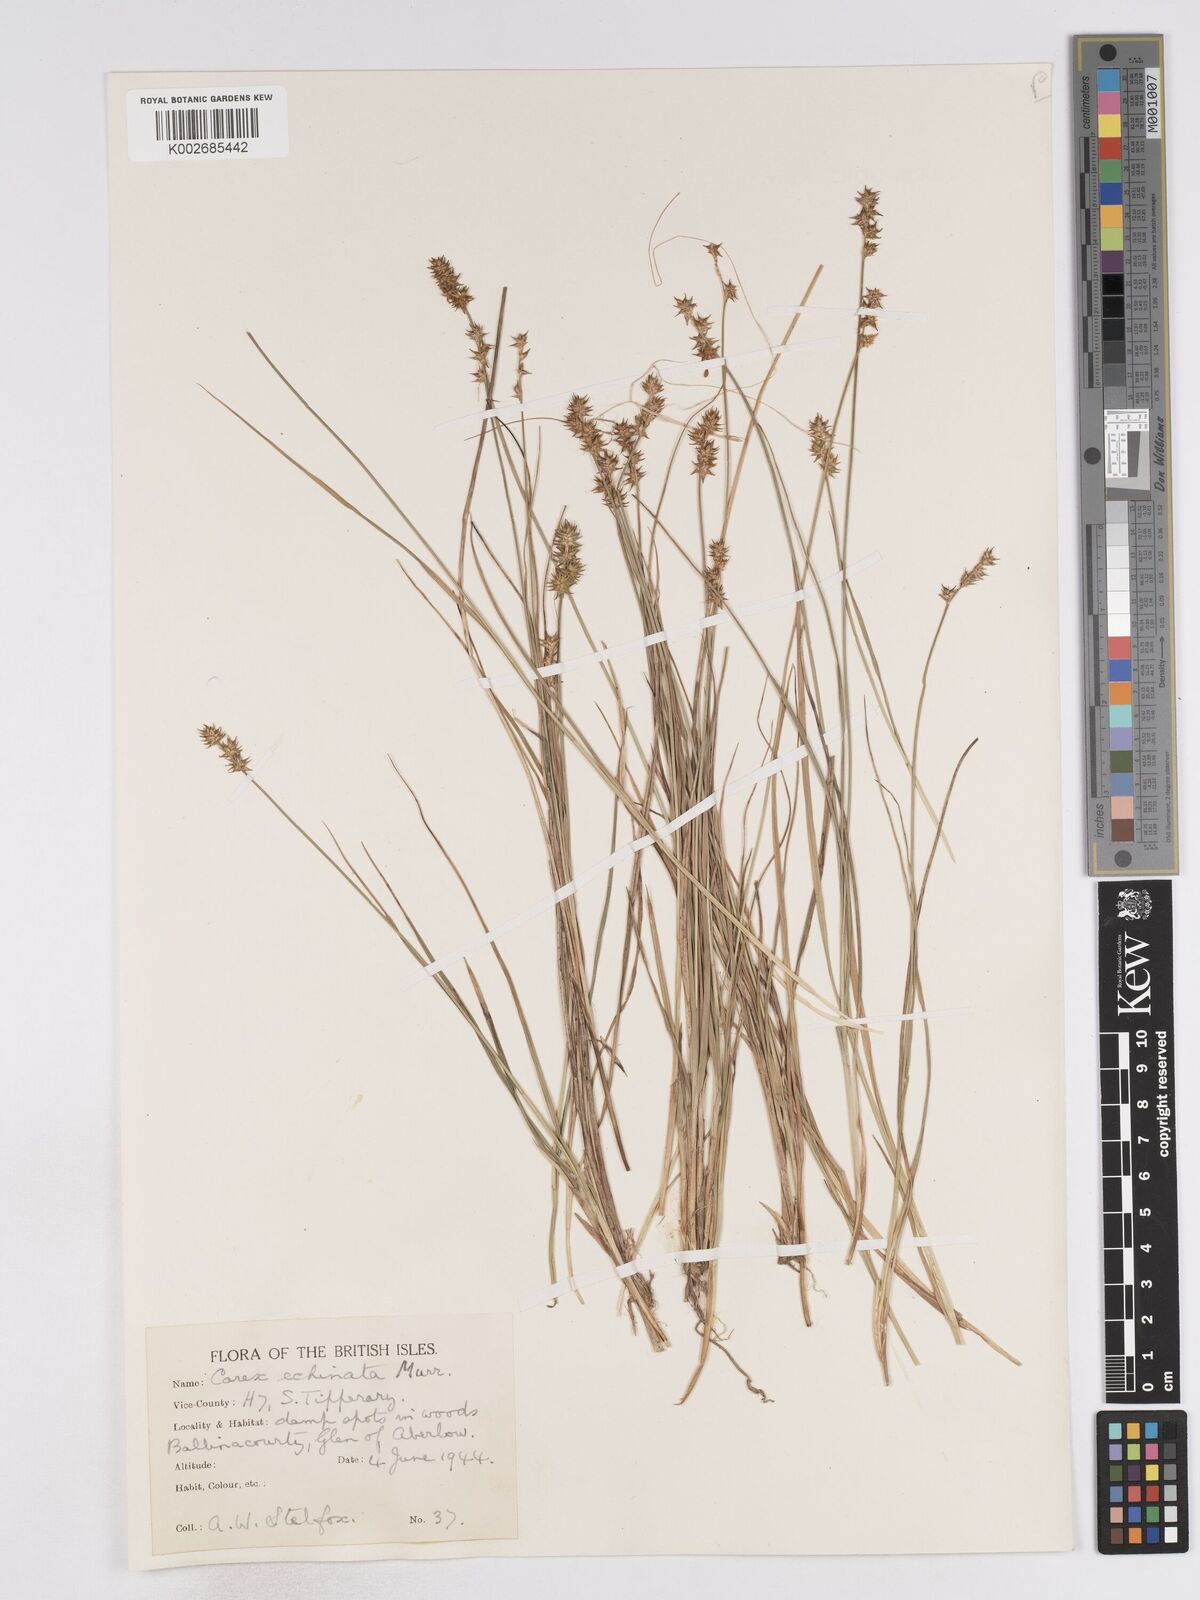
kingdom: Plantae
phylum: Tracheophyta
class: Liliopsida
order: Poales
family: Cyperaceae
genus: Carex
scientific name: Carex echinata
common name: Star sedge
